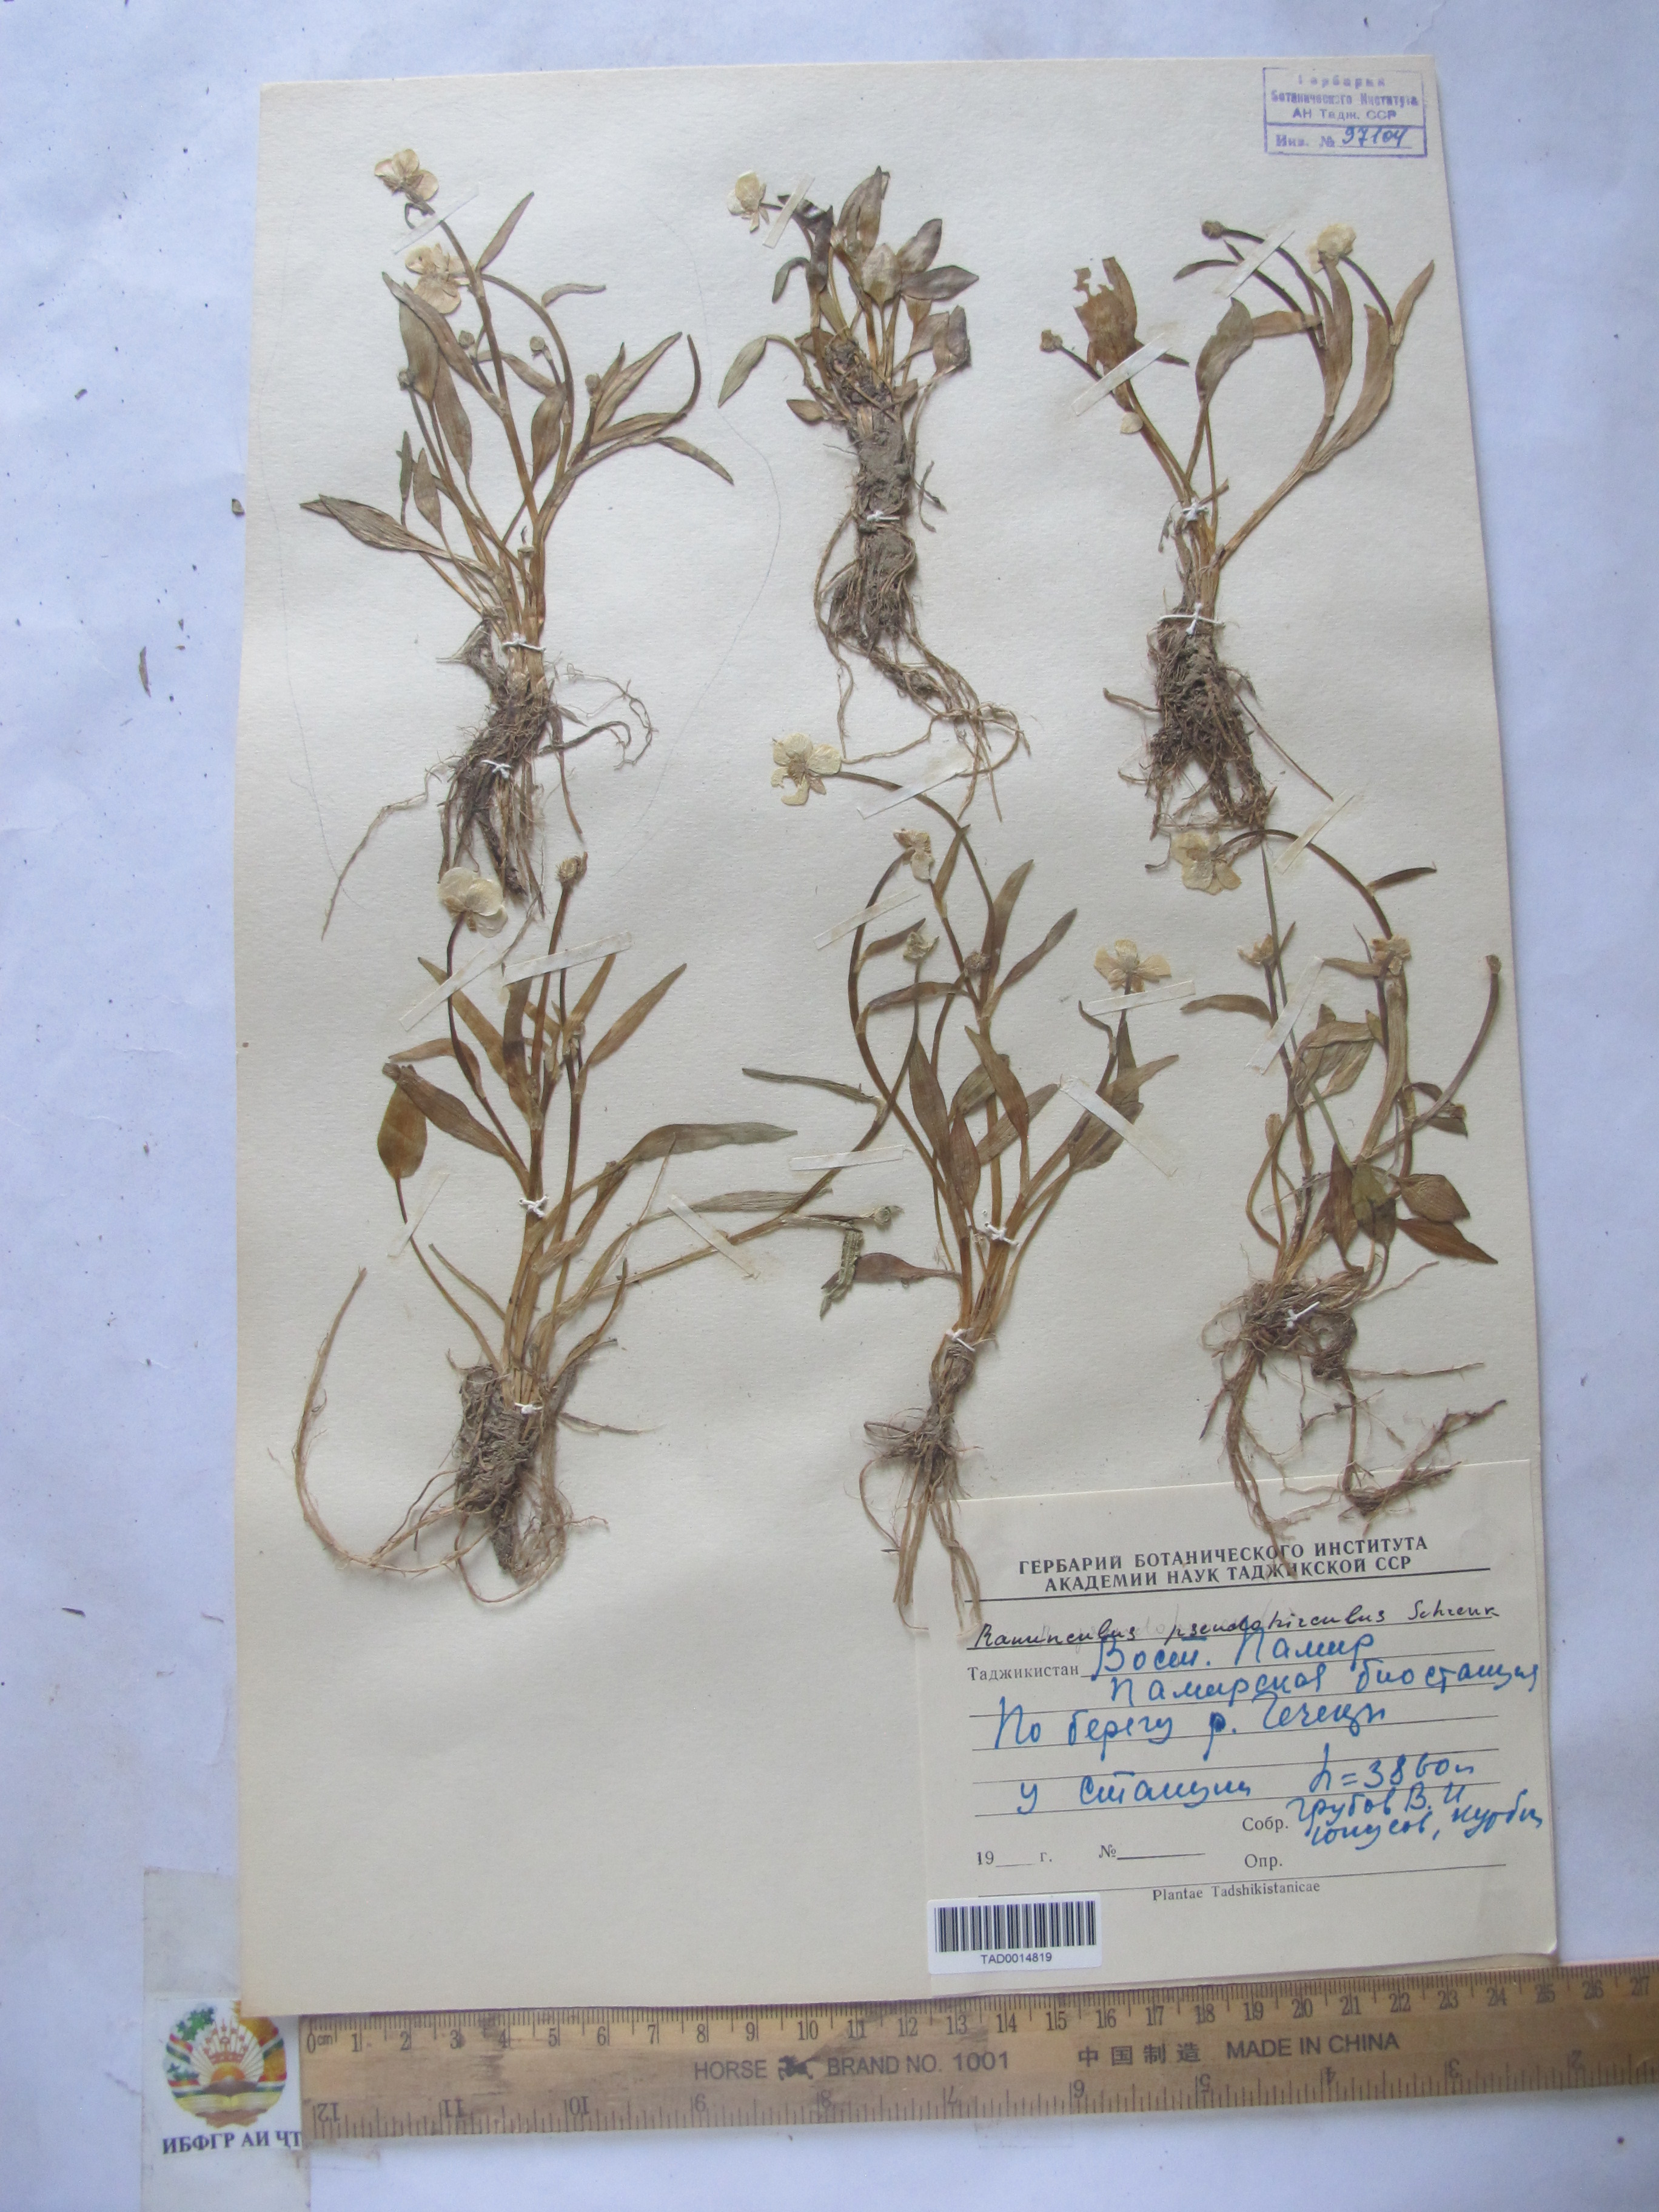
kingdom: Plantae
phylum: Tracheophyta
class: Magnoliopsida
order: Ranunculales
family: Ranunculaceae
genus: Ranunculus
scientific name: Ranunculus pseudohirculus
